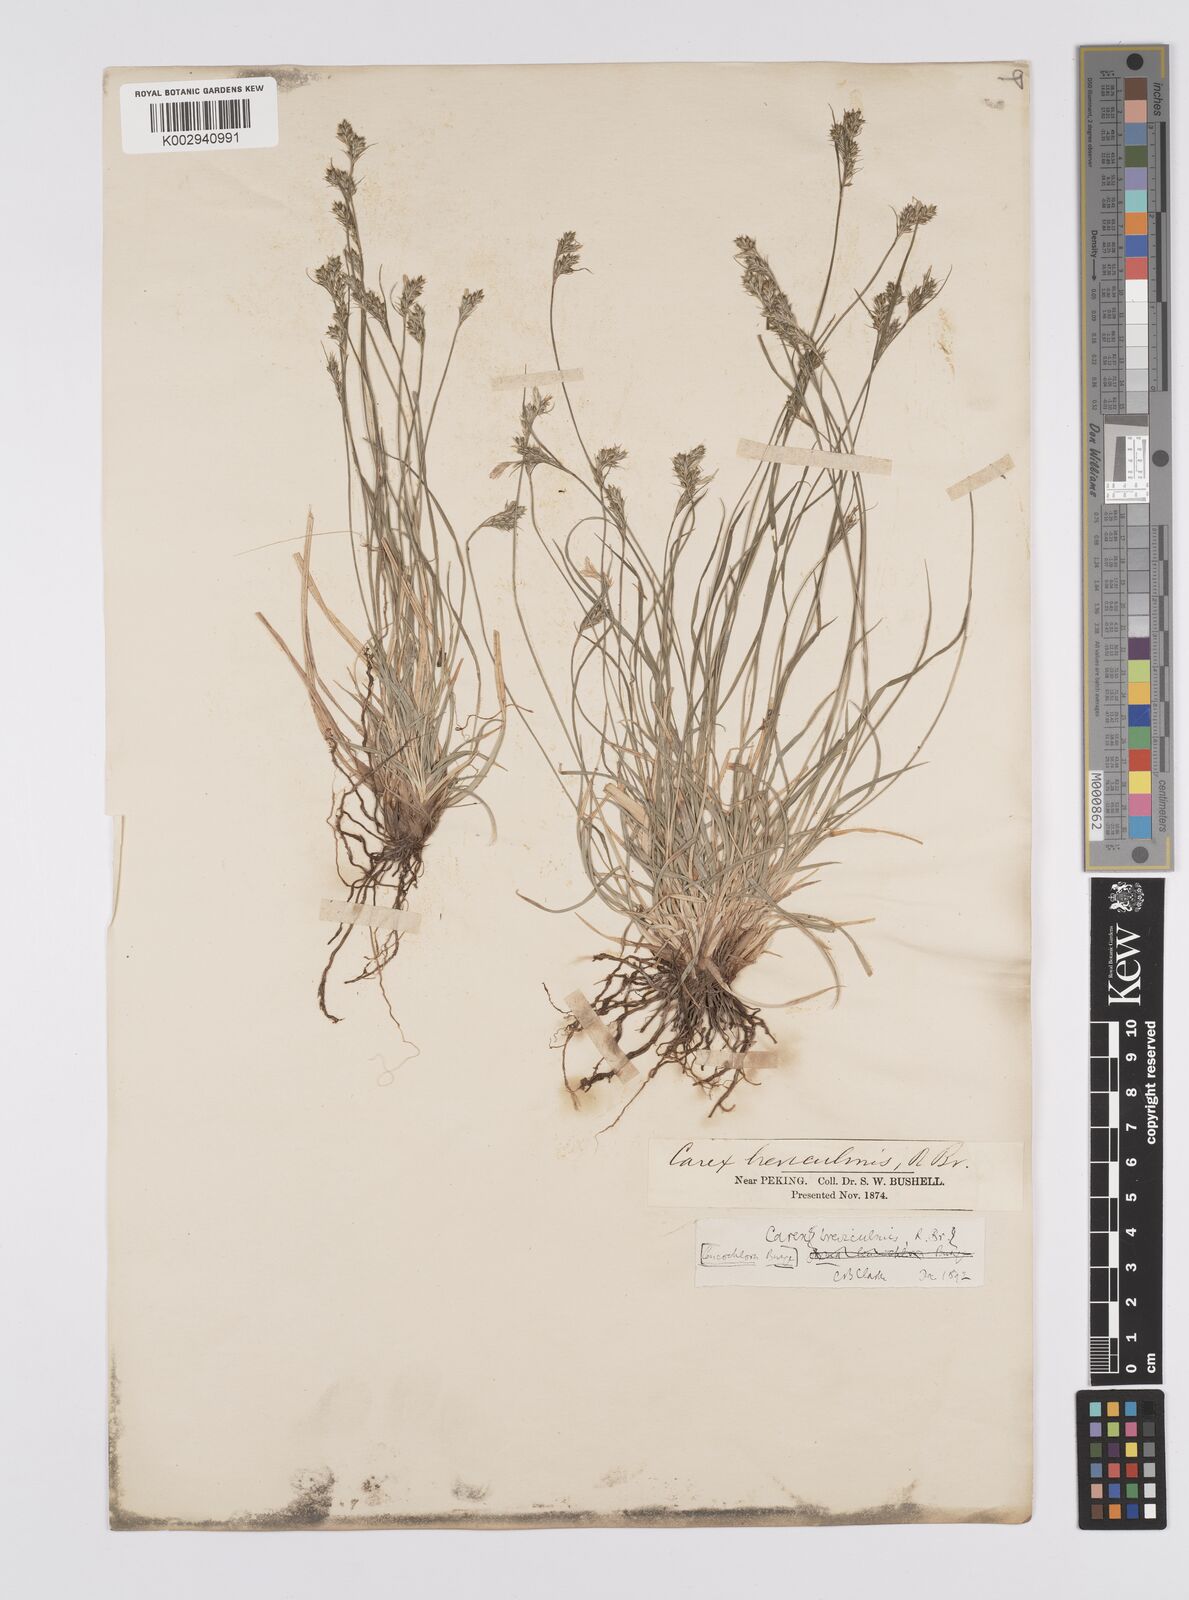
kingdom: Plantae
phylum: Tracheophyta
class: Liliopsida
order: Poales
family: Cyperaceae
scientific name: Cyperaceae
